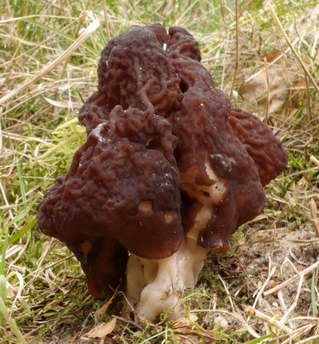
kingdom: Fungi
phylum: Ascomycota
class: Pezizomycetes
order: Pezizales
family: Discinaceae
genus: Gyromitra
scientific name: Gyromitra esculenta
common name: ægte stenmorkel
